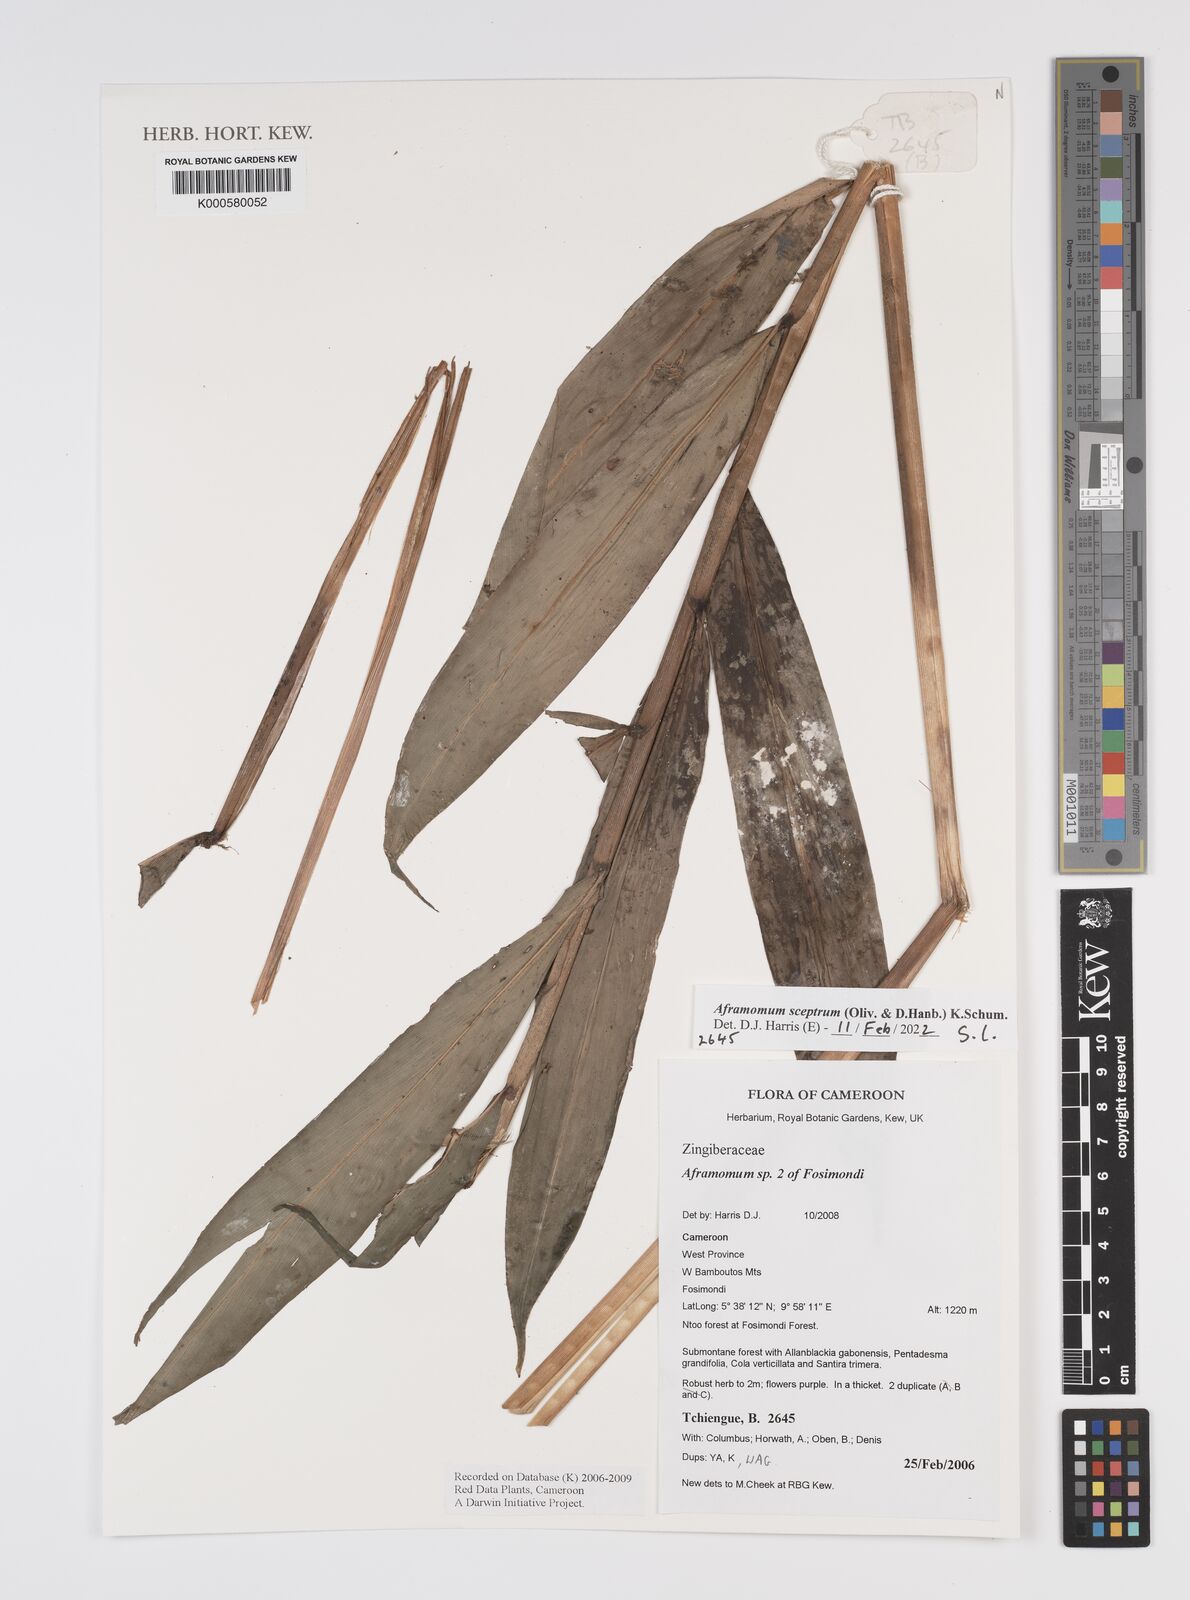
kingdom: Plantae
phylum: Tracheophyta
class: Liliopsida
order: Zingiberales
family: Zingiberaceae
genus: Aframomum
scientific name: Aframomum
